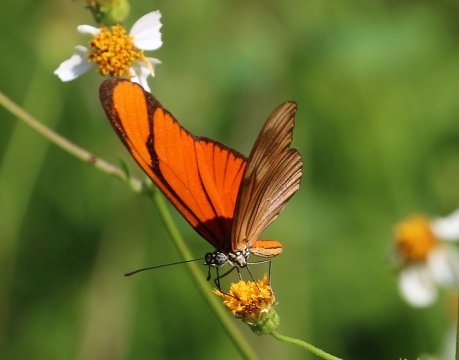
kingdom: Animalia
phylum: Arthropoda
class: Insecta
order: Lepidoptera
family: Nymphalidae
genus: Heliconius
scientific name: Heliconius aliphera
